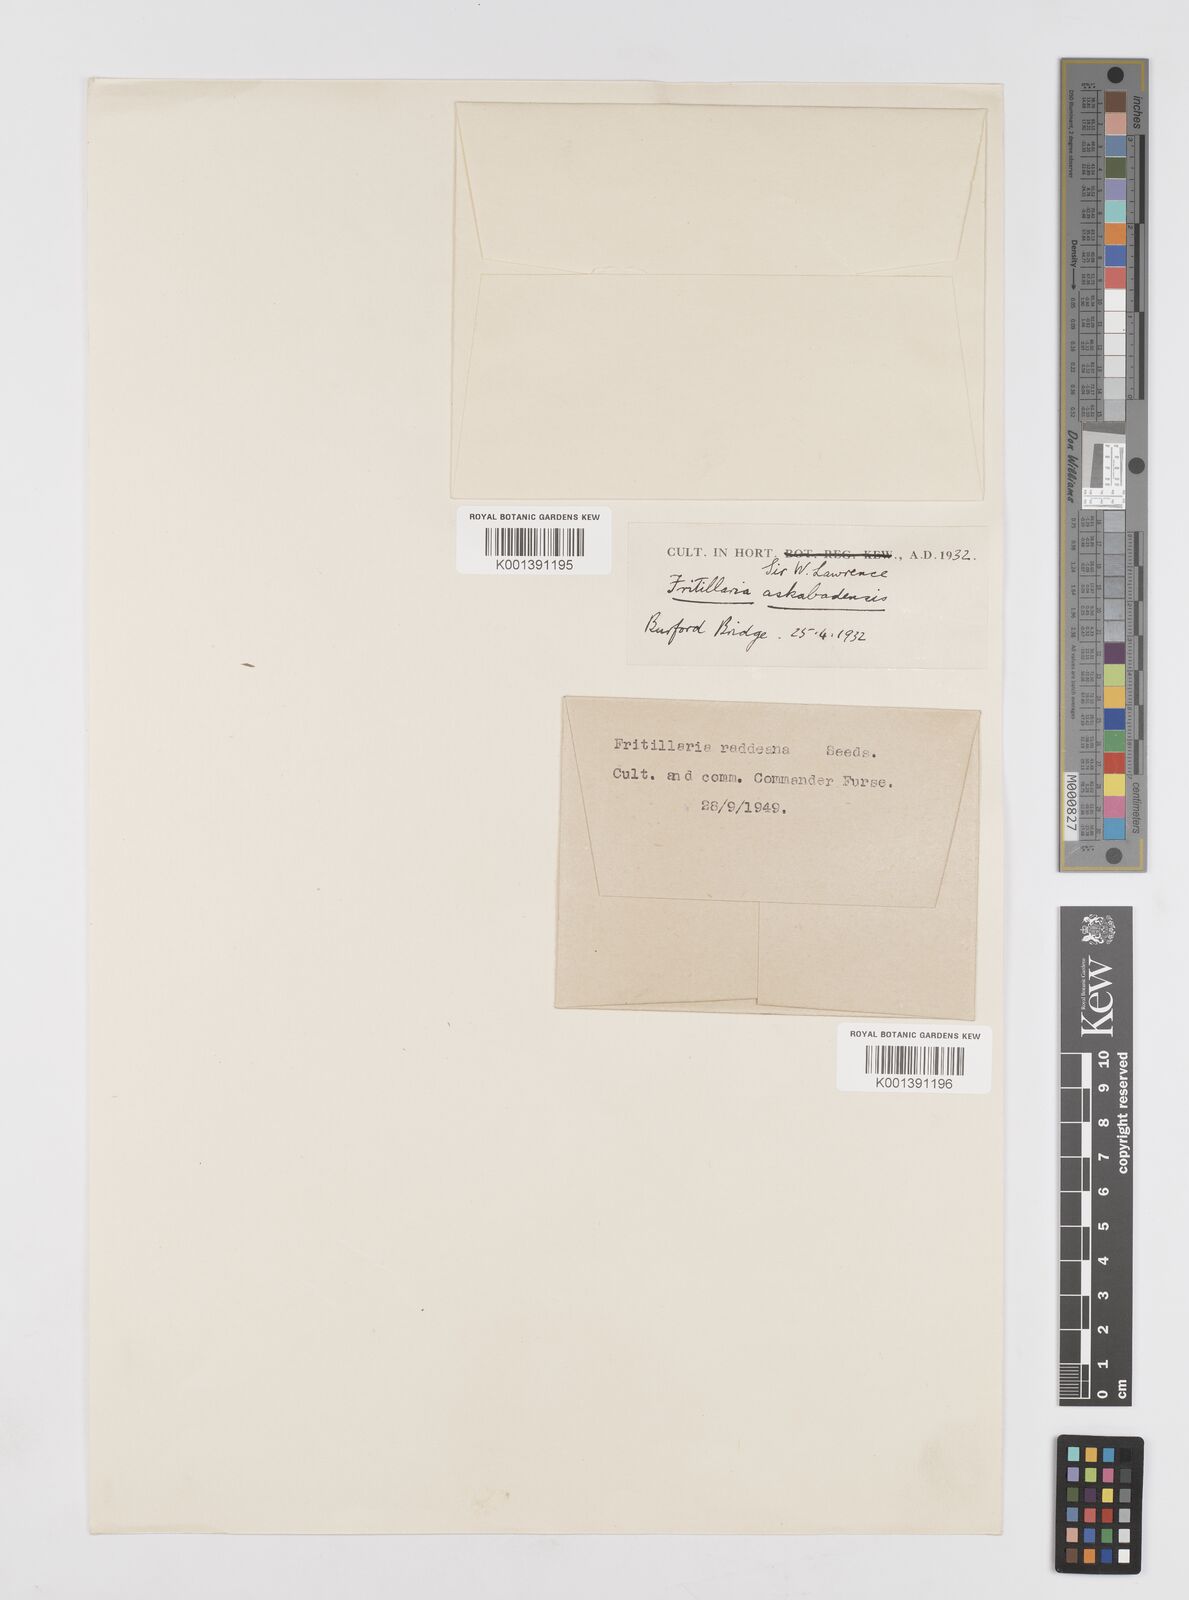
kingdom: Plantae
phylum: Tracheophyta
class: Liliopsida
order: Liliales
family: Liliaceae
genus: Fritillaria
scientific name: Fritillaria raddeana
